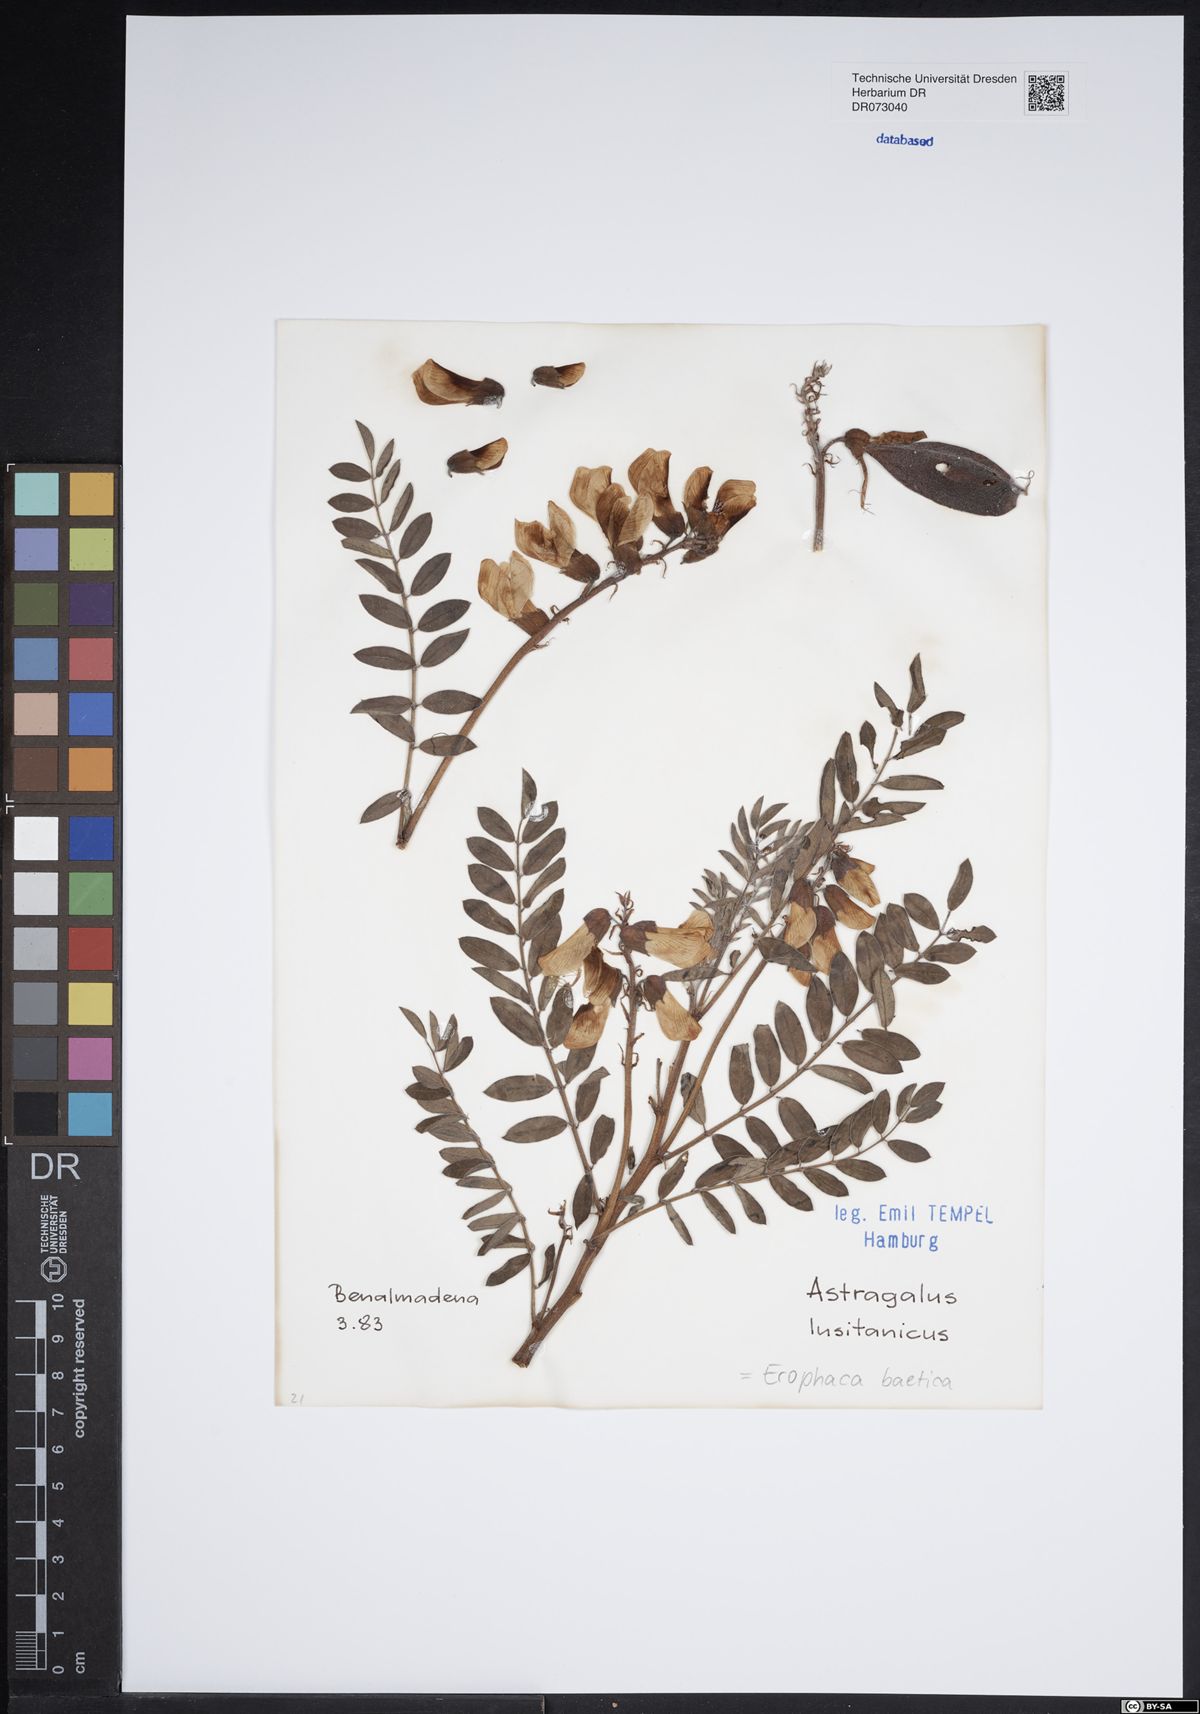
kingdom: Plantae
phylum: Tracheophyta
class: Magnoliopsida
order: Fabales
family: Fabaceae
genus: Lupinus
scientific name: Lupinus angustifolius
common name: Narrow-leaved lupin
